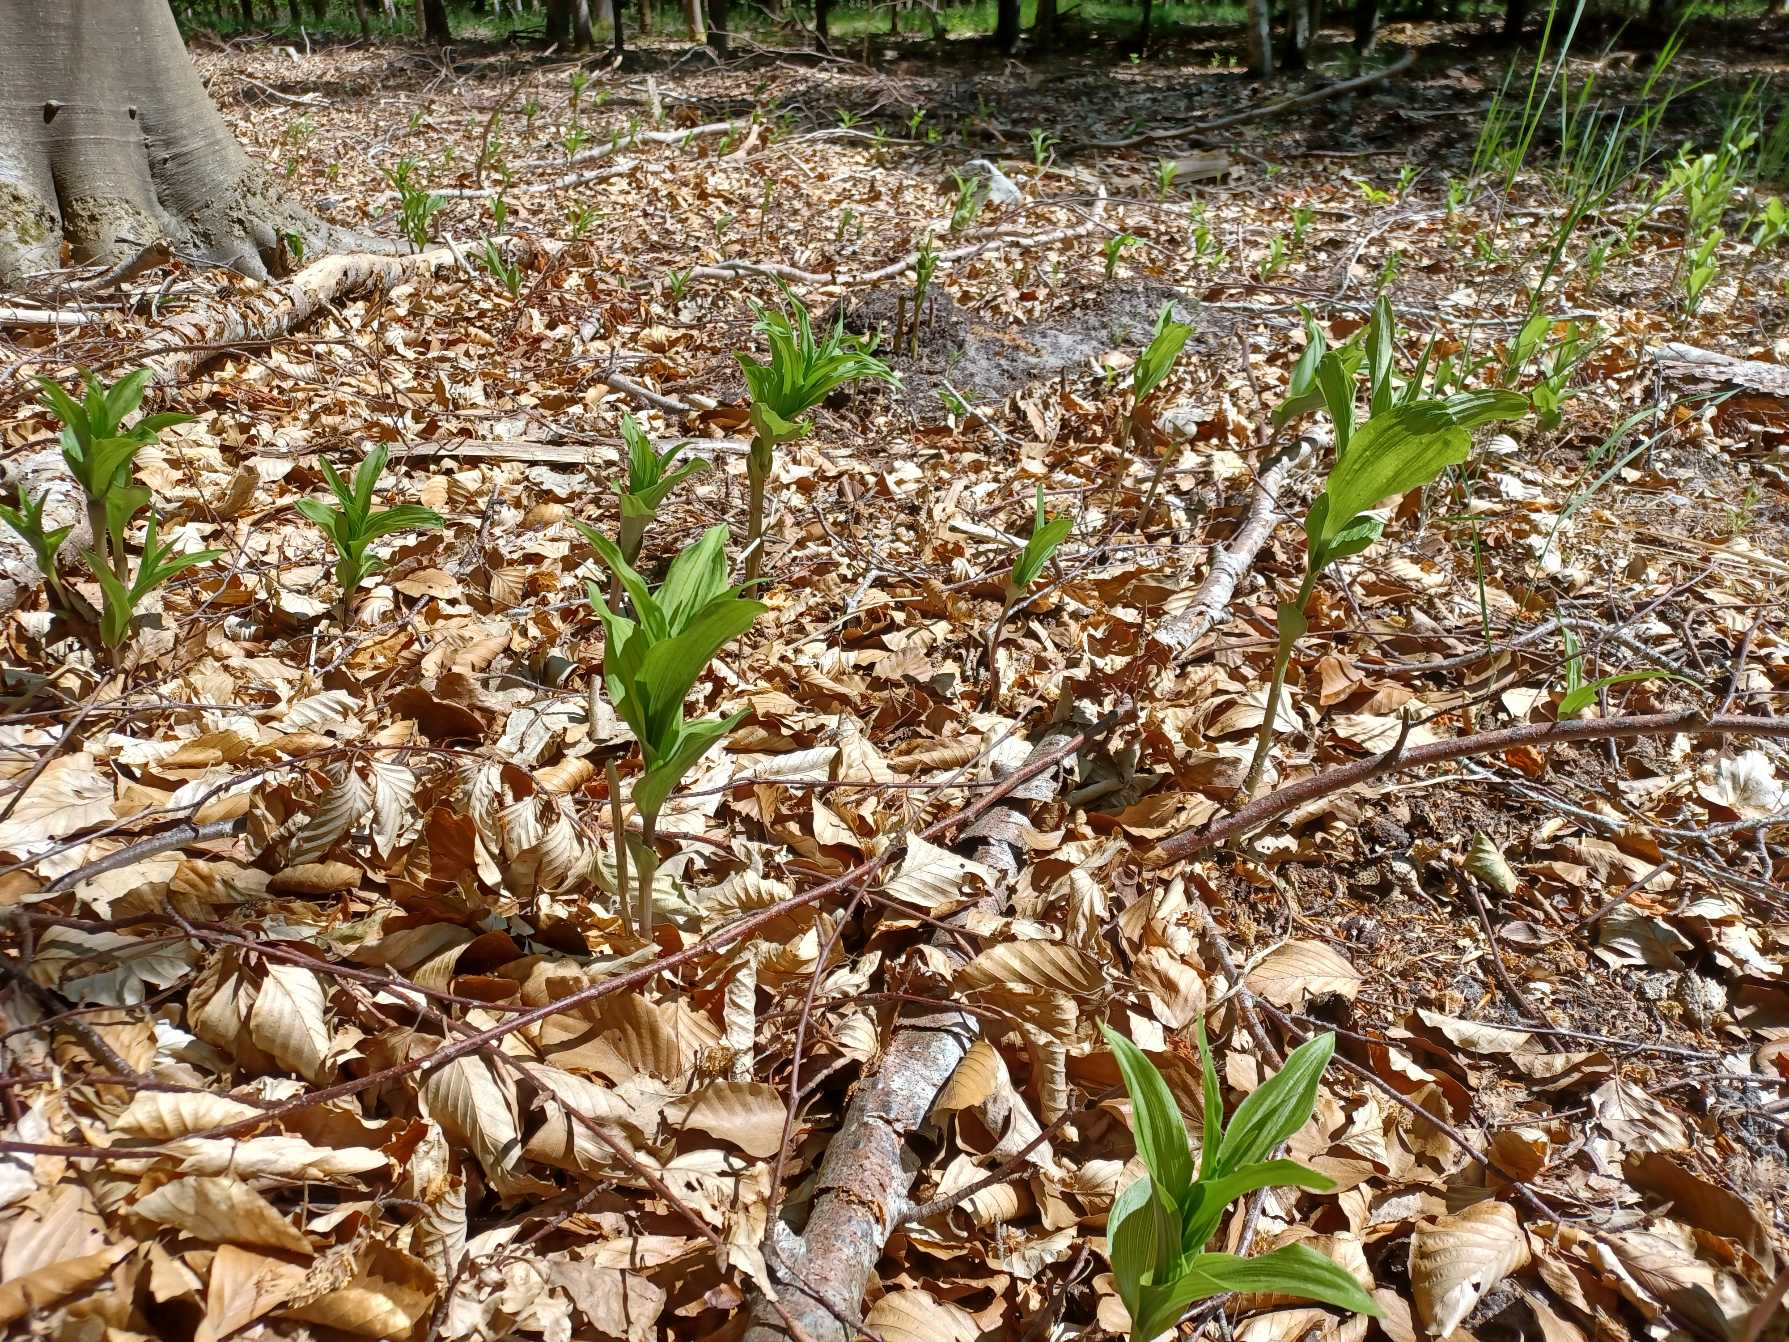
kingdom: Plantae
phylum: Tracheophyta
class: Liliopsida
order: Asparagales
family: Orchidaceae
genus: Epipactis
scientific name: Epipactis helleborine
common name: Skov-hullæbe
